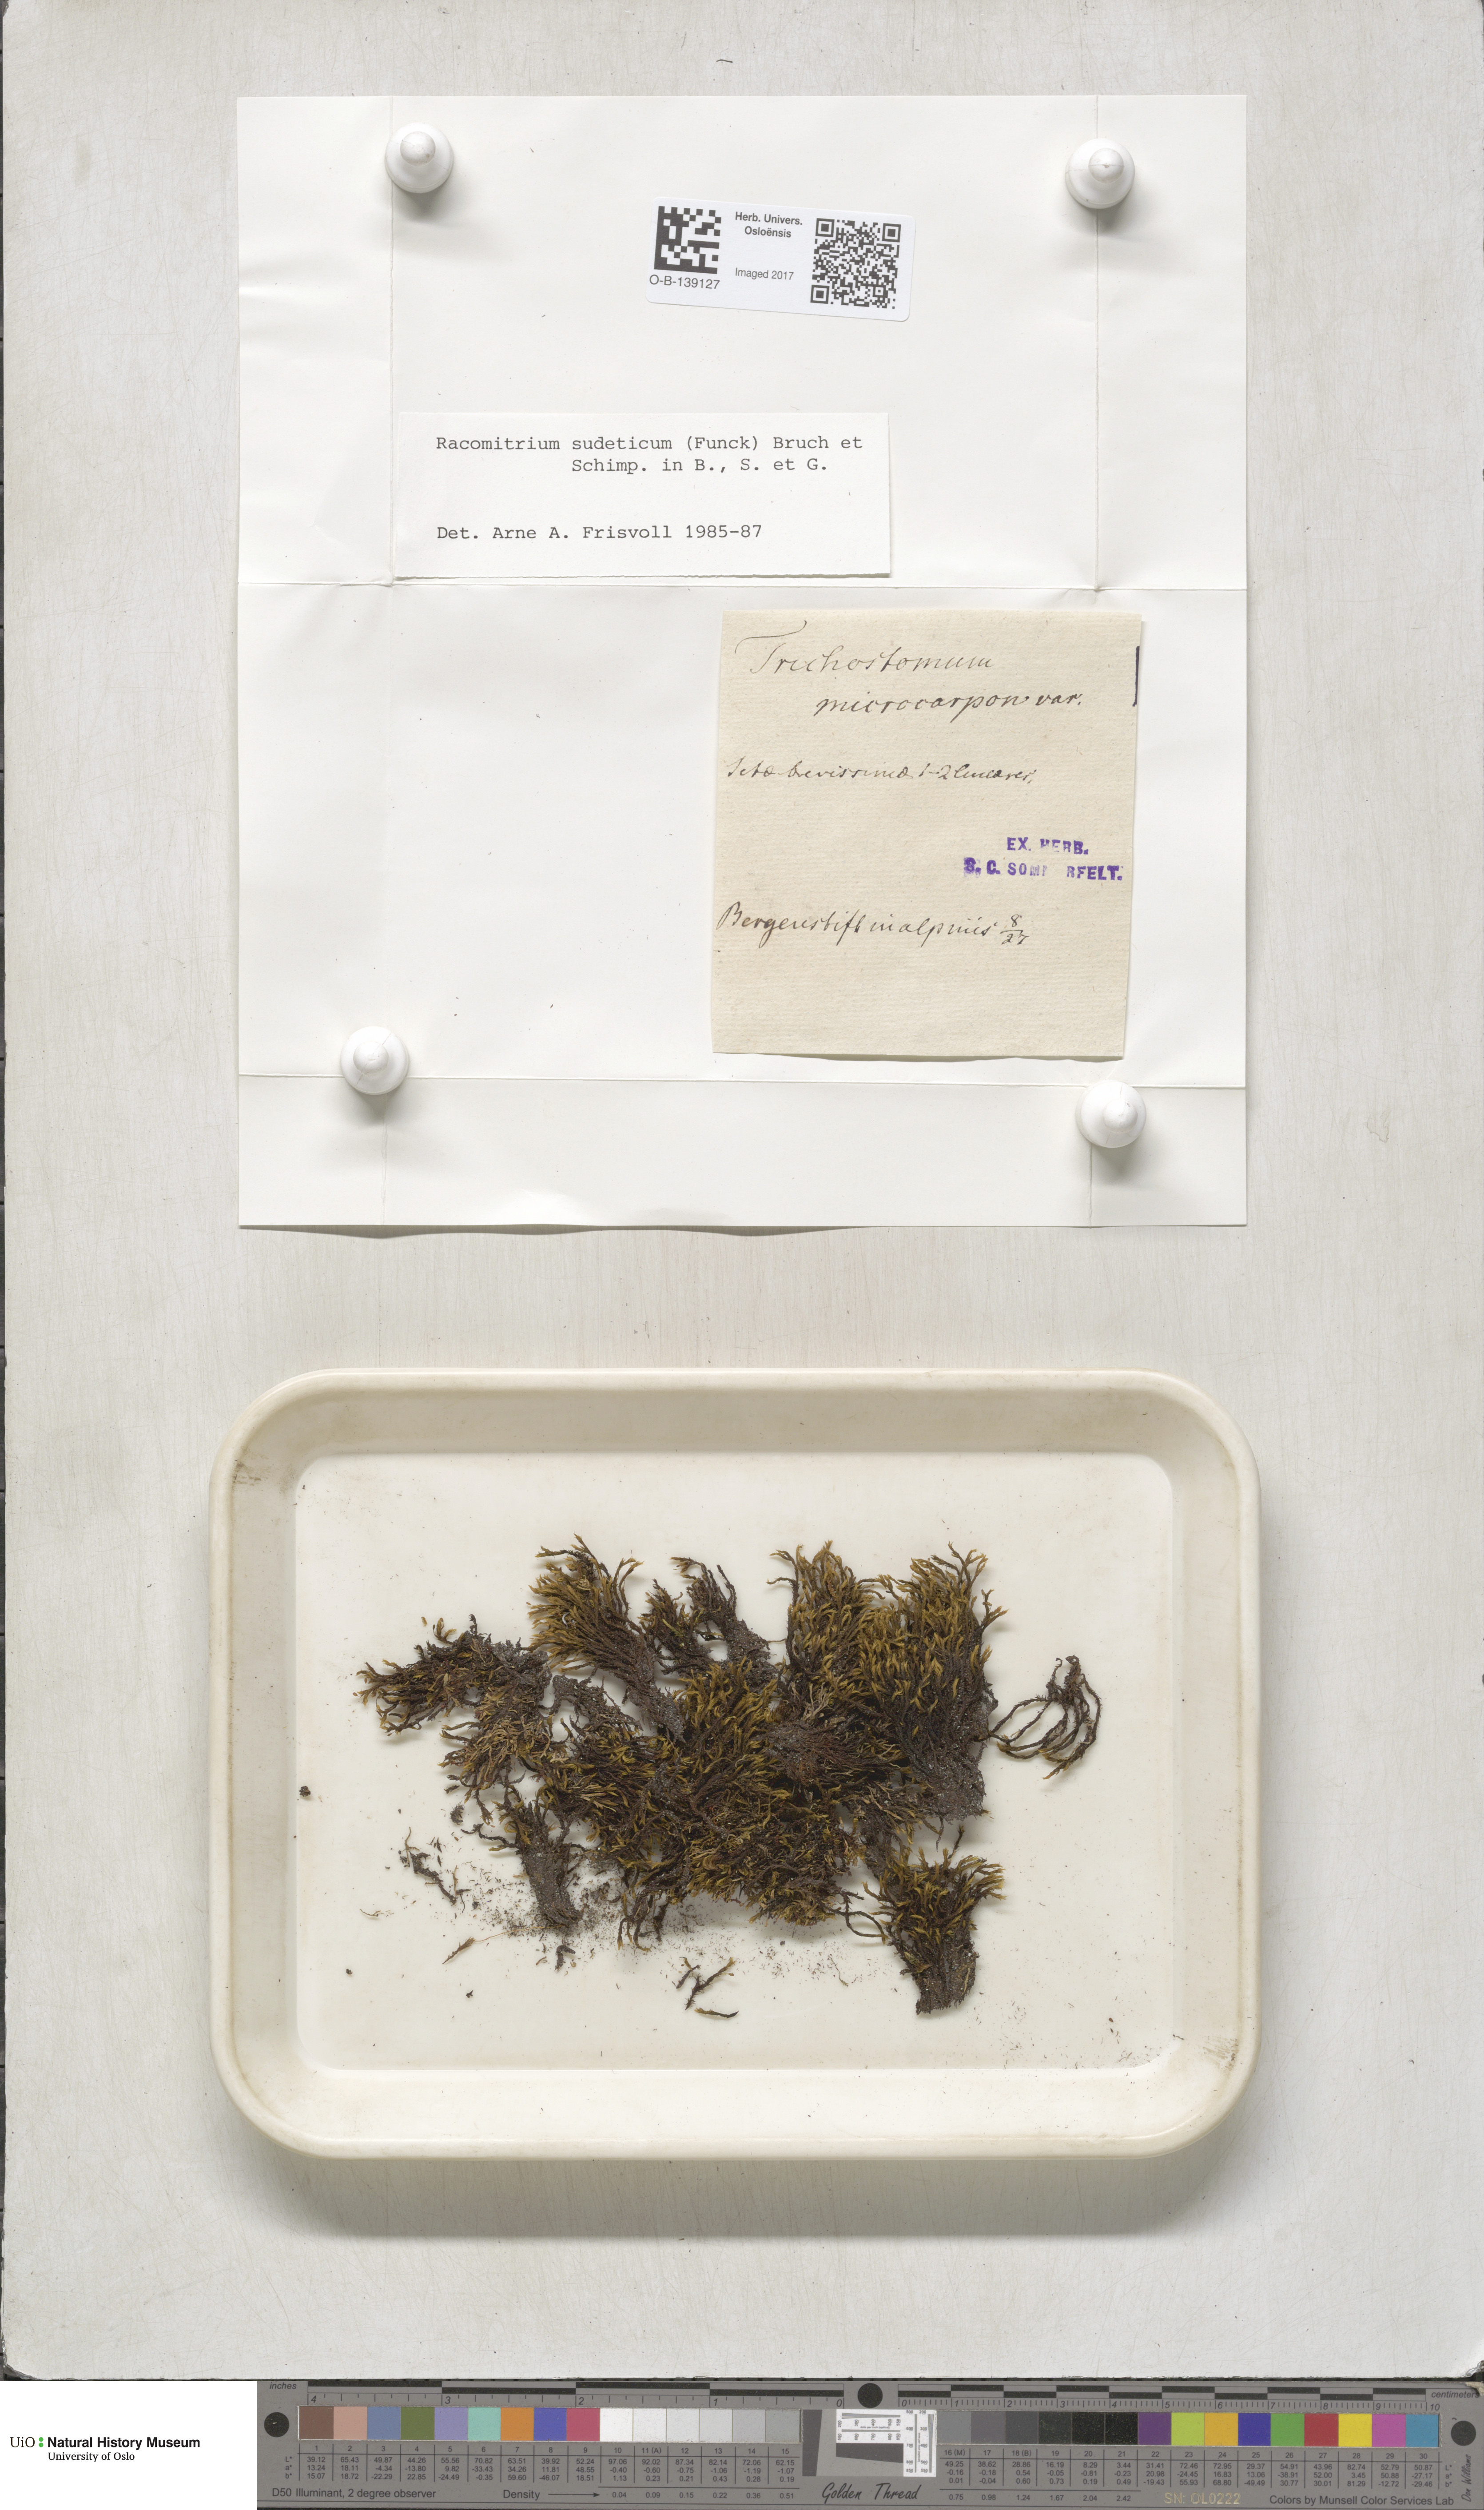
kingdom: Plantae
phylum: Bryophyta
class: Bryopsida
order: Grimmiales
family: Grimmiaceae
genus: Bucklandiella
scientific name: Bucklandiella sudetica
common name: Slender fringe-moss
